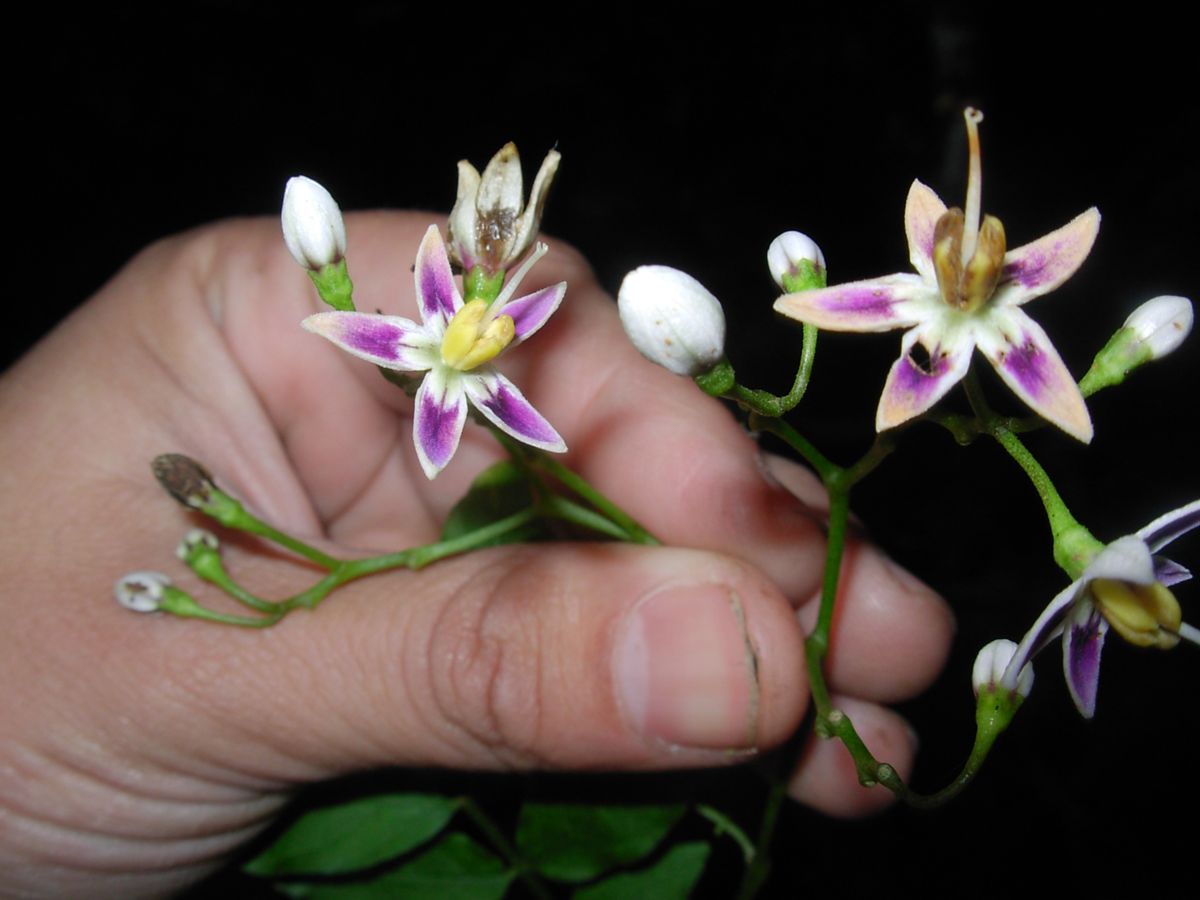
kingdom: Plantae
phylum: Tracheophyta
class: Magnoliopsida
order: Solanales
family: Solanaceae
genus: Solanum
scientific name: Solanum appendiculatum
